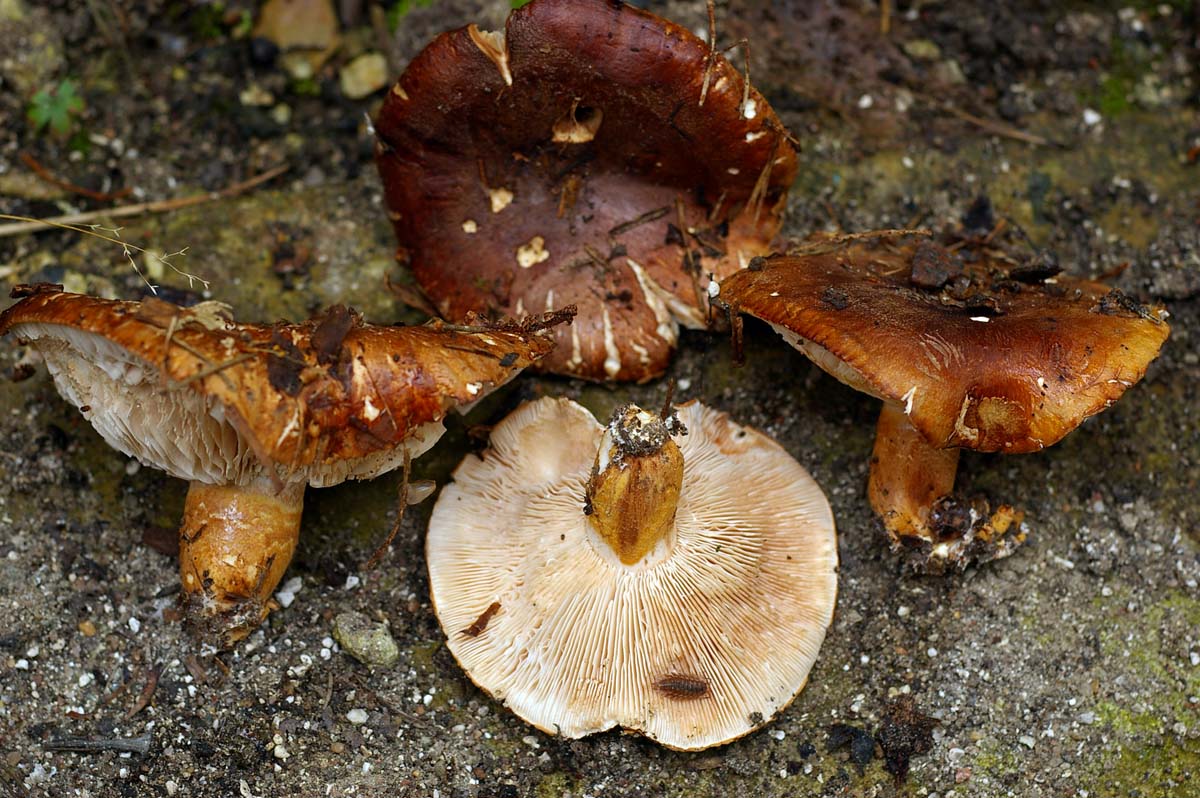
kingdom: Fungi
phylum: Basidiomycota
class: Agaricomycetes
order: Agaricales
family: Tricholomataceae
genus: Tricholoma
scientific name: Tricholoma fracticum
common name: hvidhalset ridderhat
